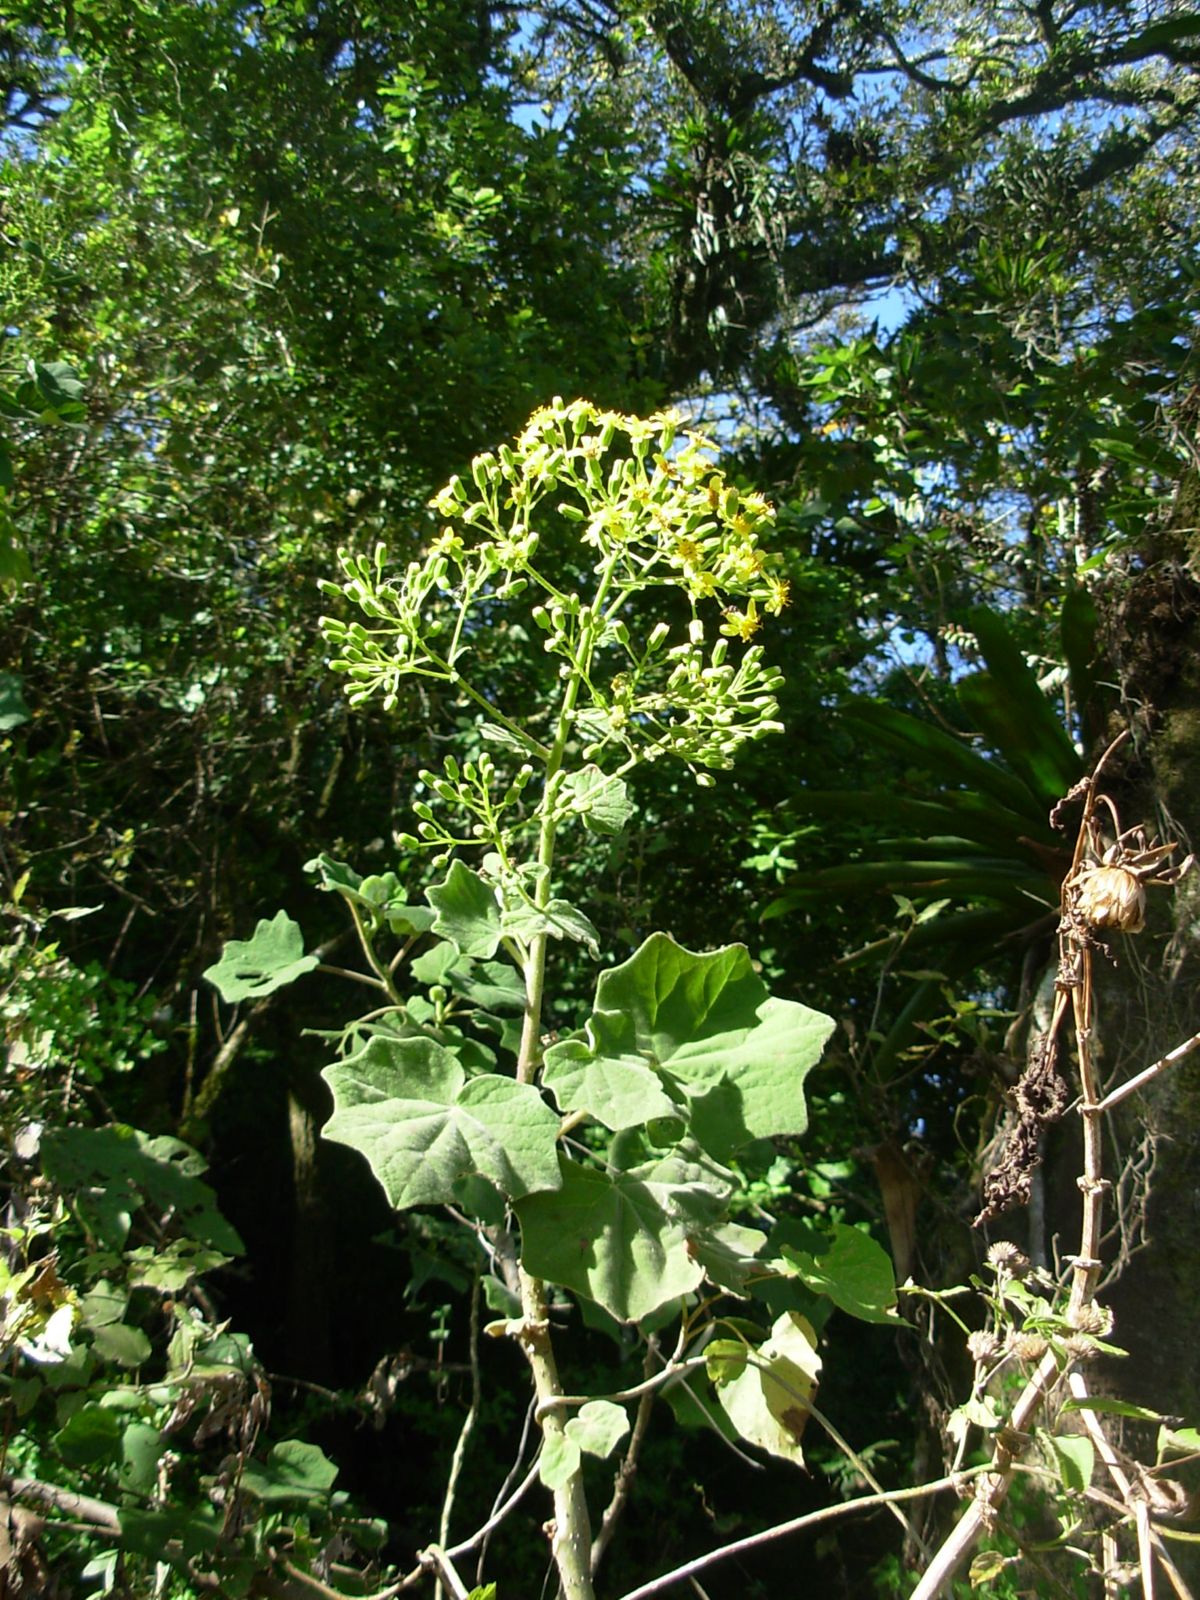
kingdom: Plantae
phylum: Tracheophyta
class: Magnoliopsida
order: Asterales
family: Asteraceae
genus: Roldana
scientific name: Roldana petasitis
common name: California-geranium
